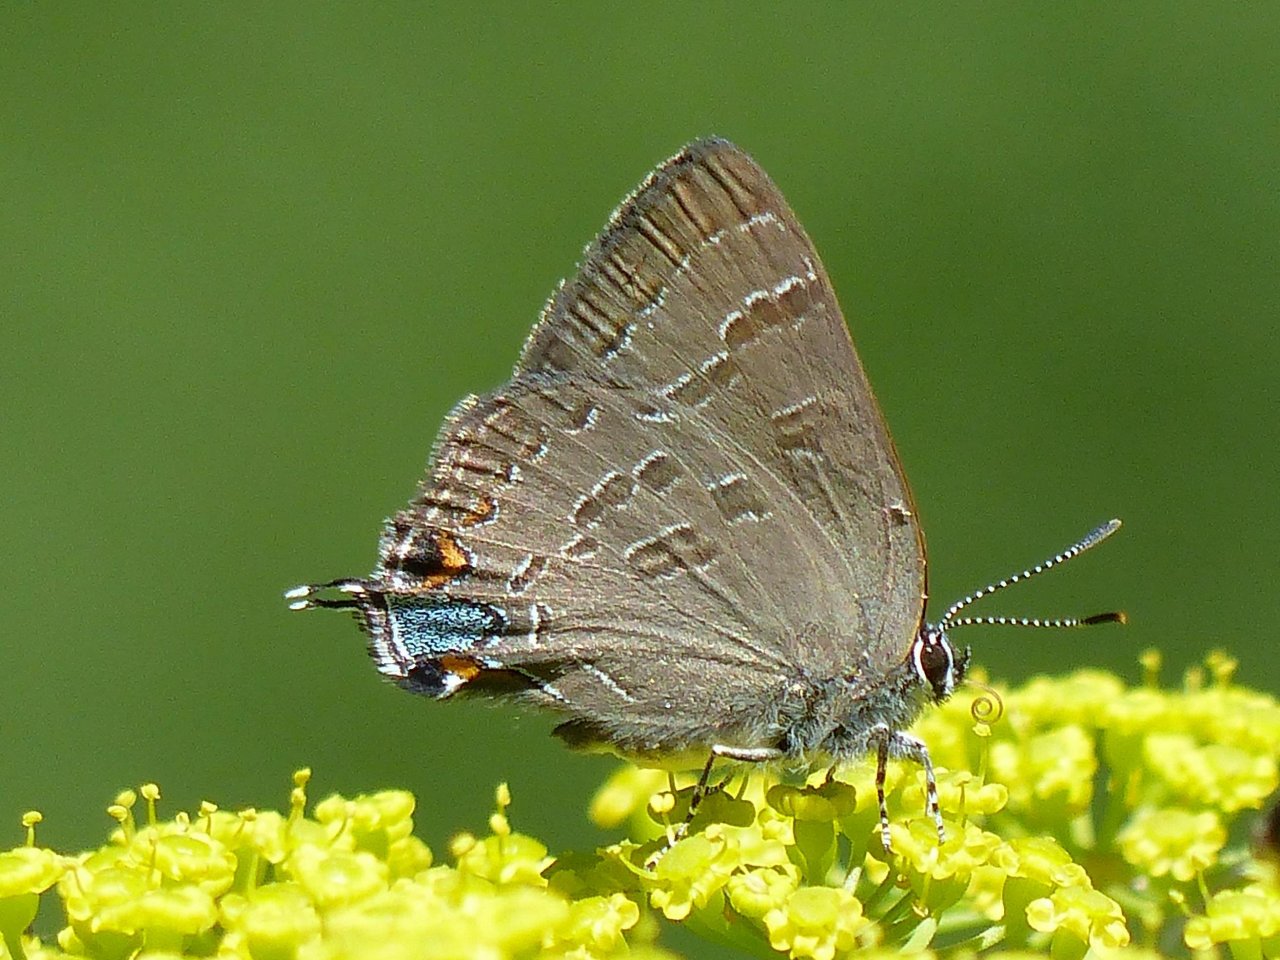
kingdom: Animalia
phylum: Arthropoda
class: Insecta
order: Lepidoptera
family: Lycaenidae
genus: Strymon
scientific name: Strymon caryaevorus
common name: Hickory Hairstreak
